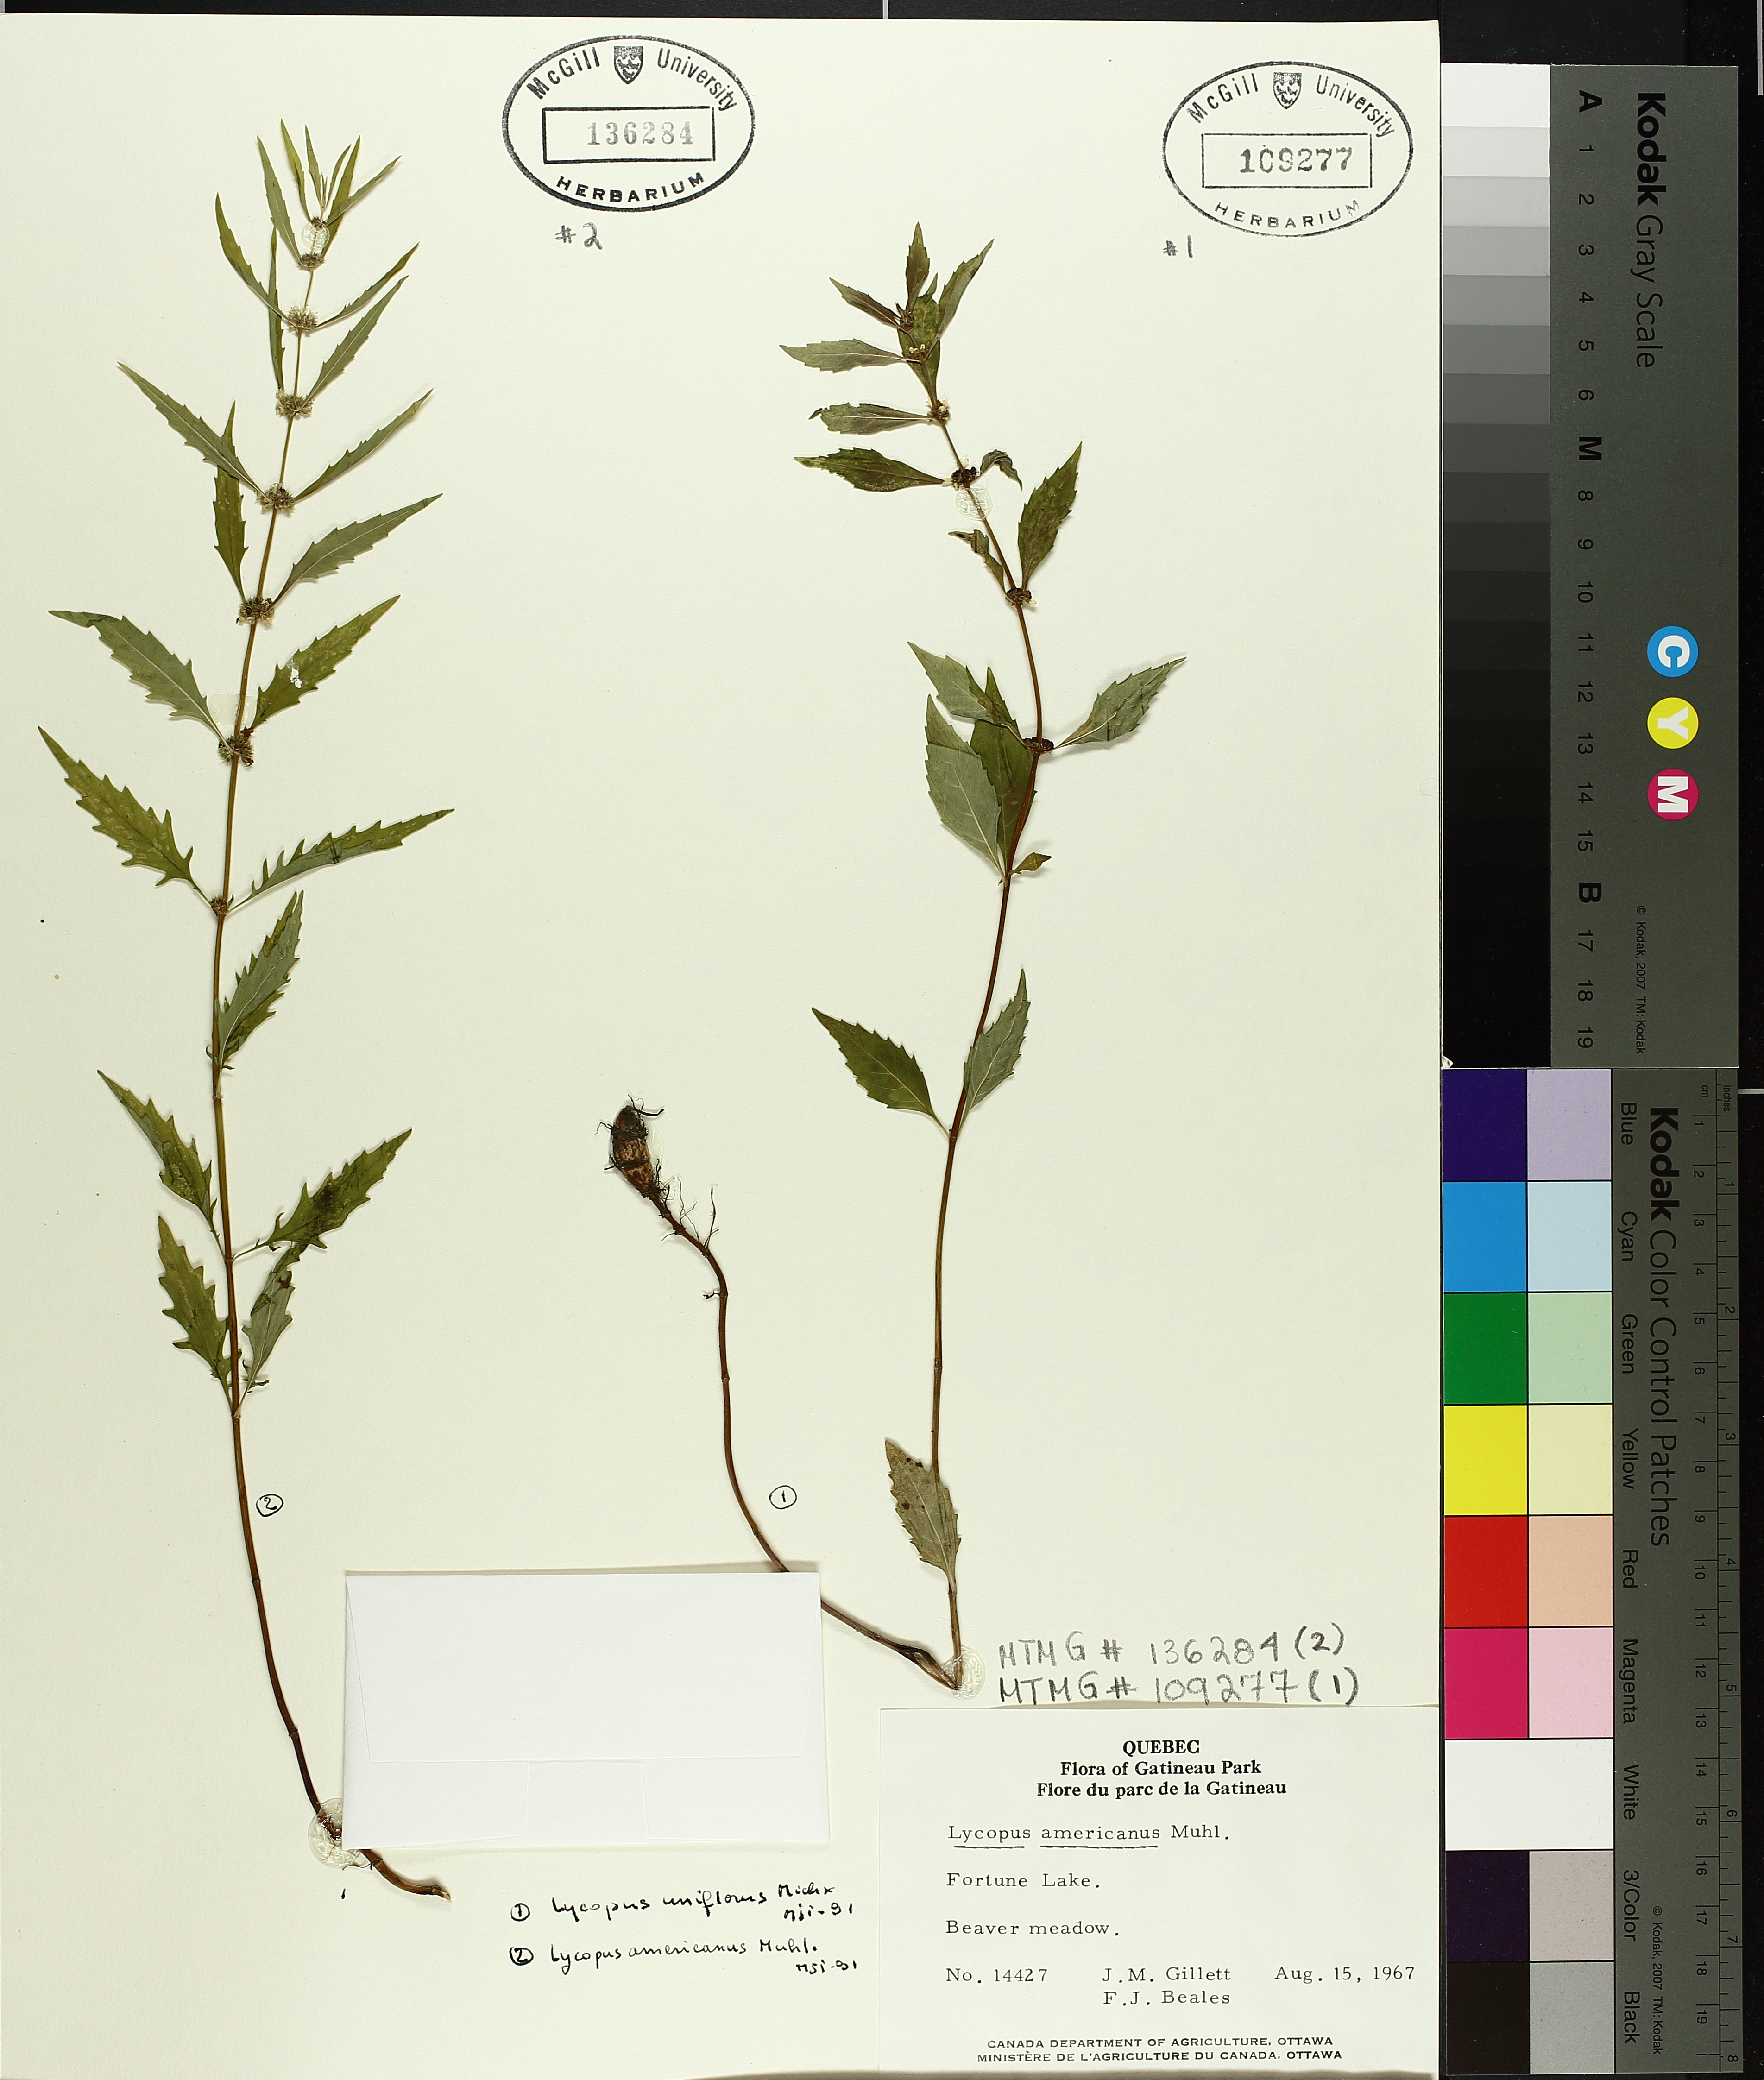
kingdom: Plantae
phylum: Tracheophyta
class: Magnoliopsida
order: Lamiales
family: Lamiaceae
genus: Lycopus
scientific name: Lycopus uniflorus
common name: Northern bugleweed
